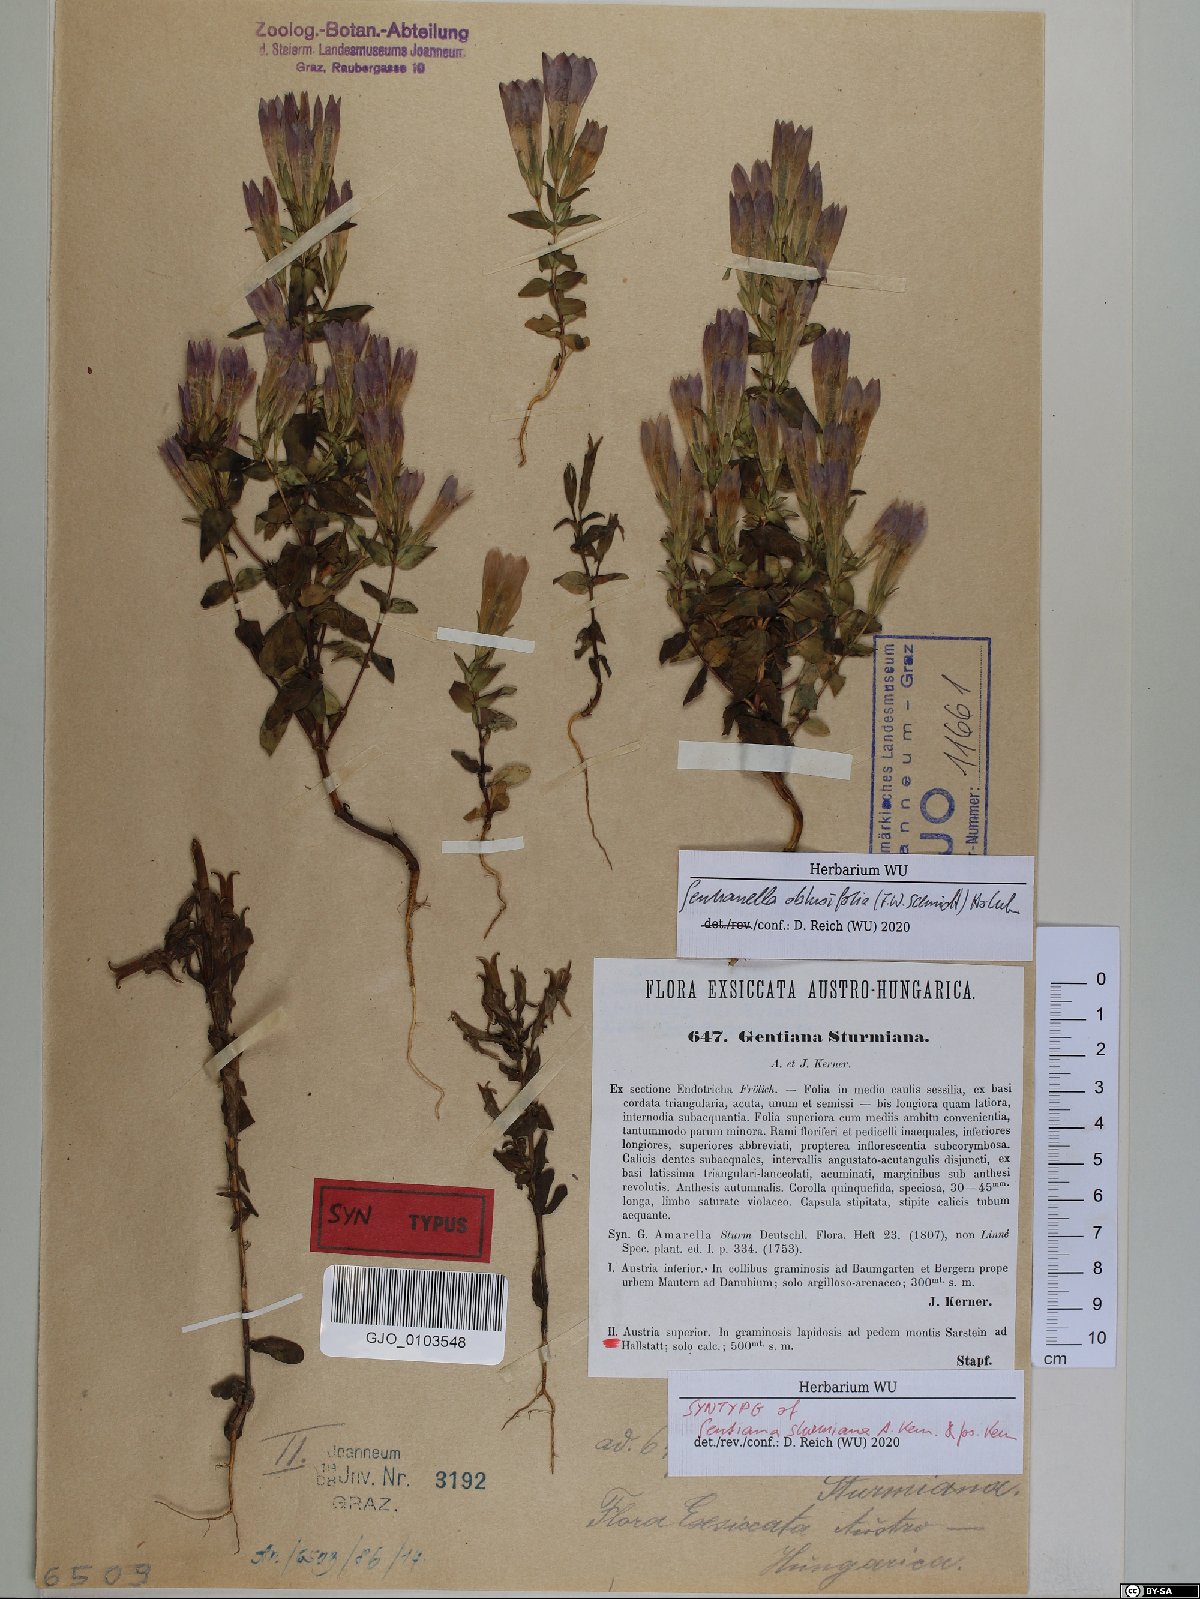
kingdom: Plantae
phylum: Tracheophyta
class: Magnoliopsida
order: Gentianales
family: Gentianaceae
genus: Gentianella
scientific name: Gentianella obtusifolia
